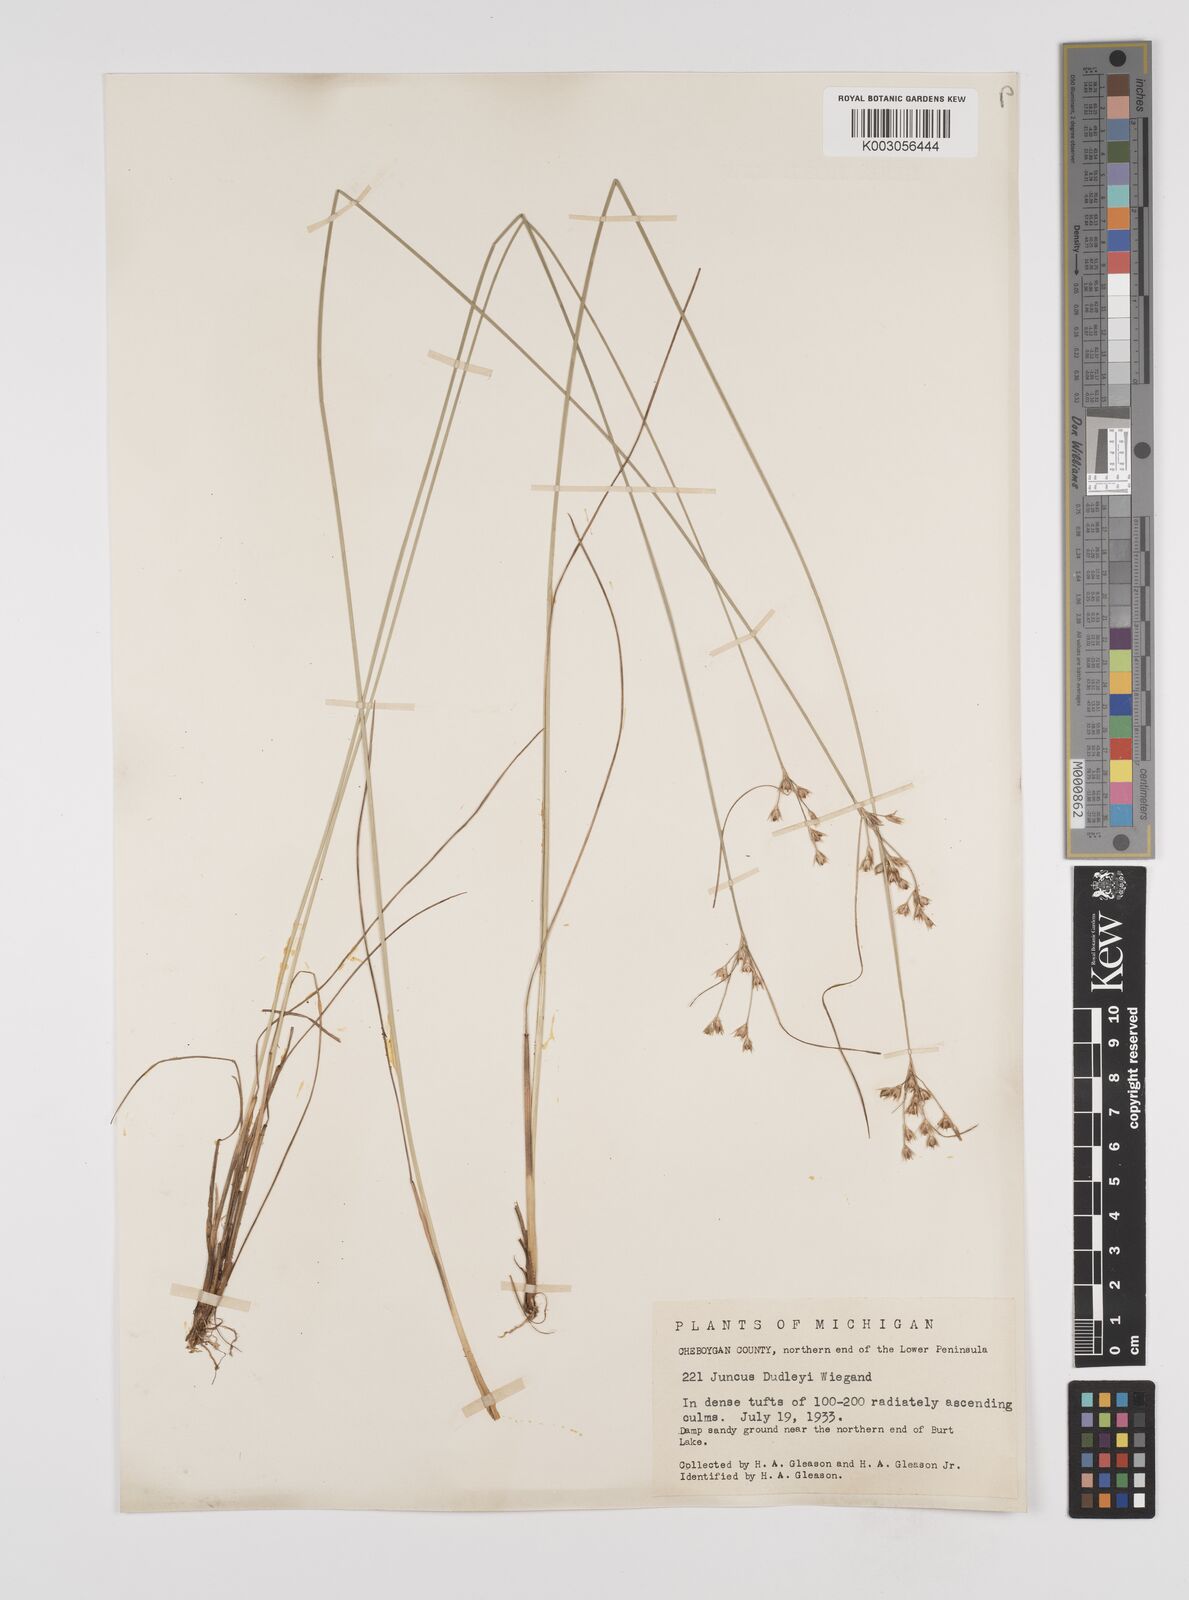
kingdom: Plantae
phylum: Tracheophyta
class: Liliopsida
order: Poales
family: Juncaceae
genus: Juncus
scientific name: Juncus dudleyi
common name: Dudley's rush
